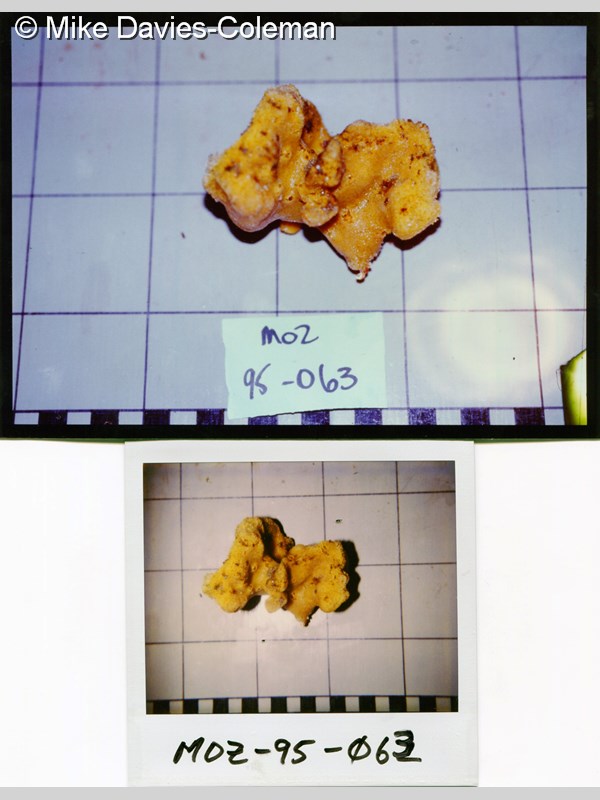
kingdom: Animalia
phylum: Porifera
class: Demospongiae
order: Haplosclerida
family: Petrosiidae
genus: Petrosia
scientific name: Petrosia
